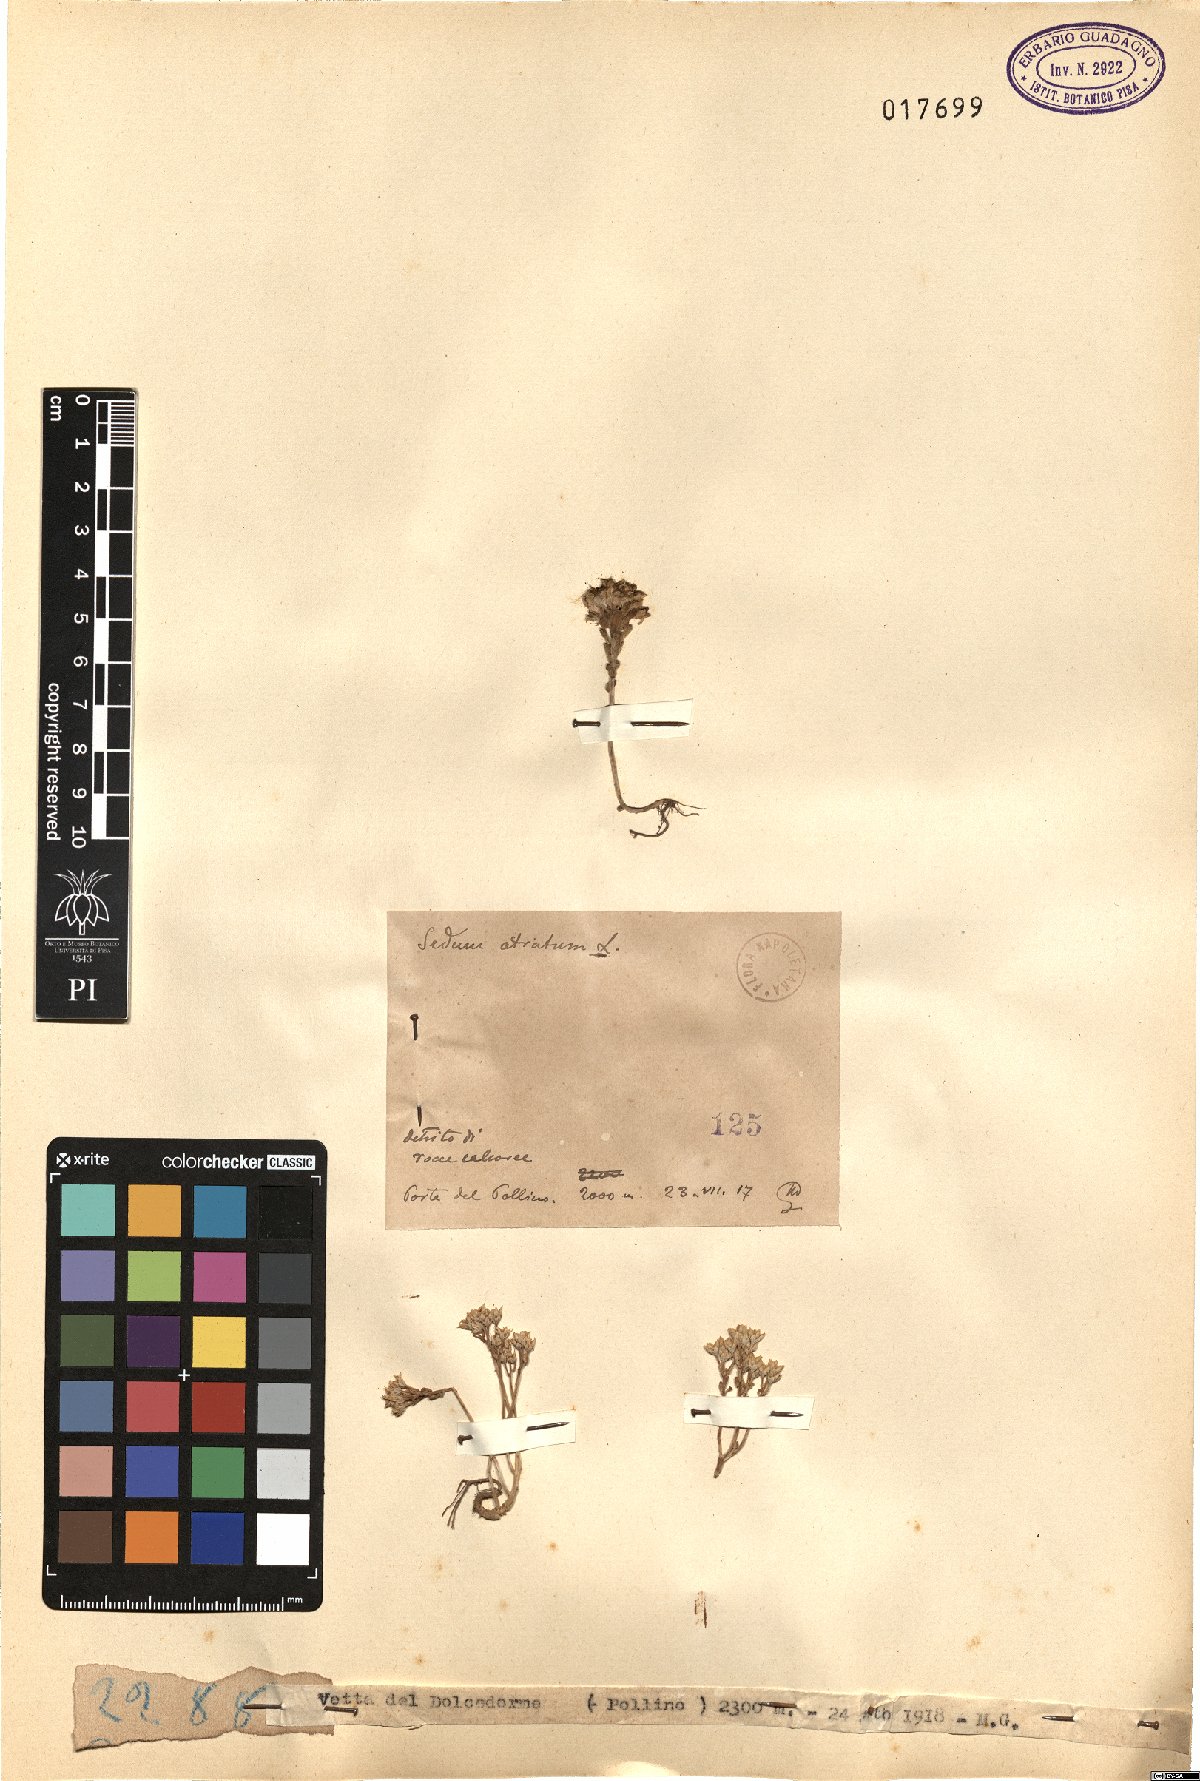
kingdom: Plantae
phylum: Tracheophyta
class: Magnoliopsida
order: Saxifragales
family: Crassulaceae
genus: Sedum
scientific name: Sedum atratum
